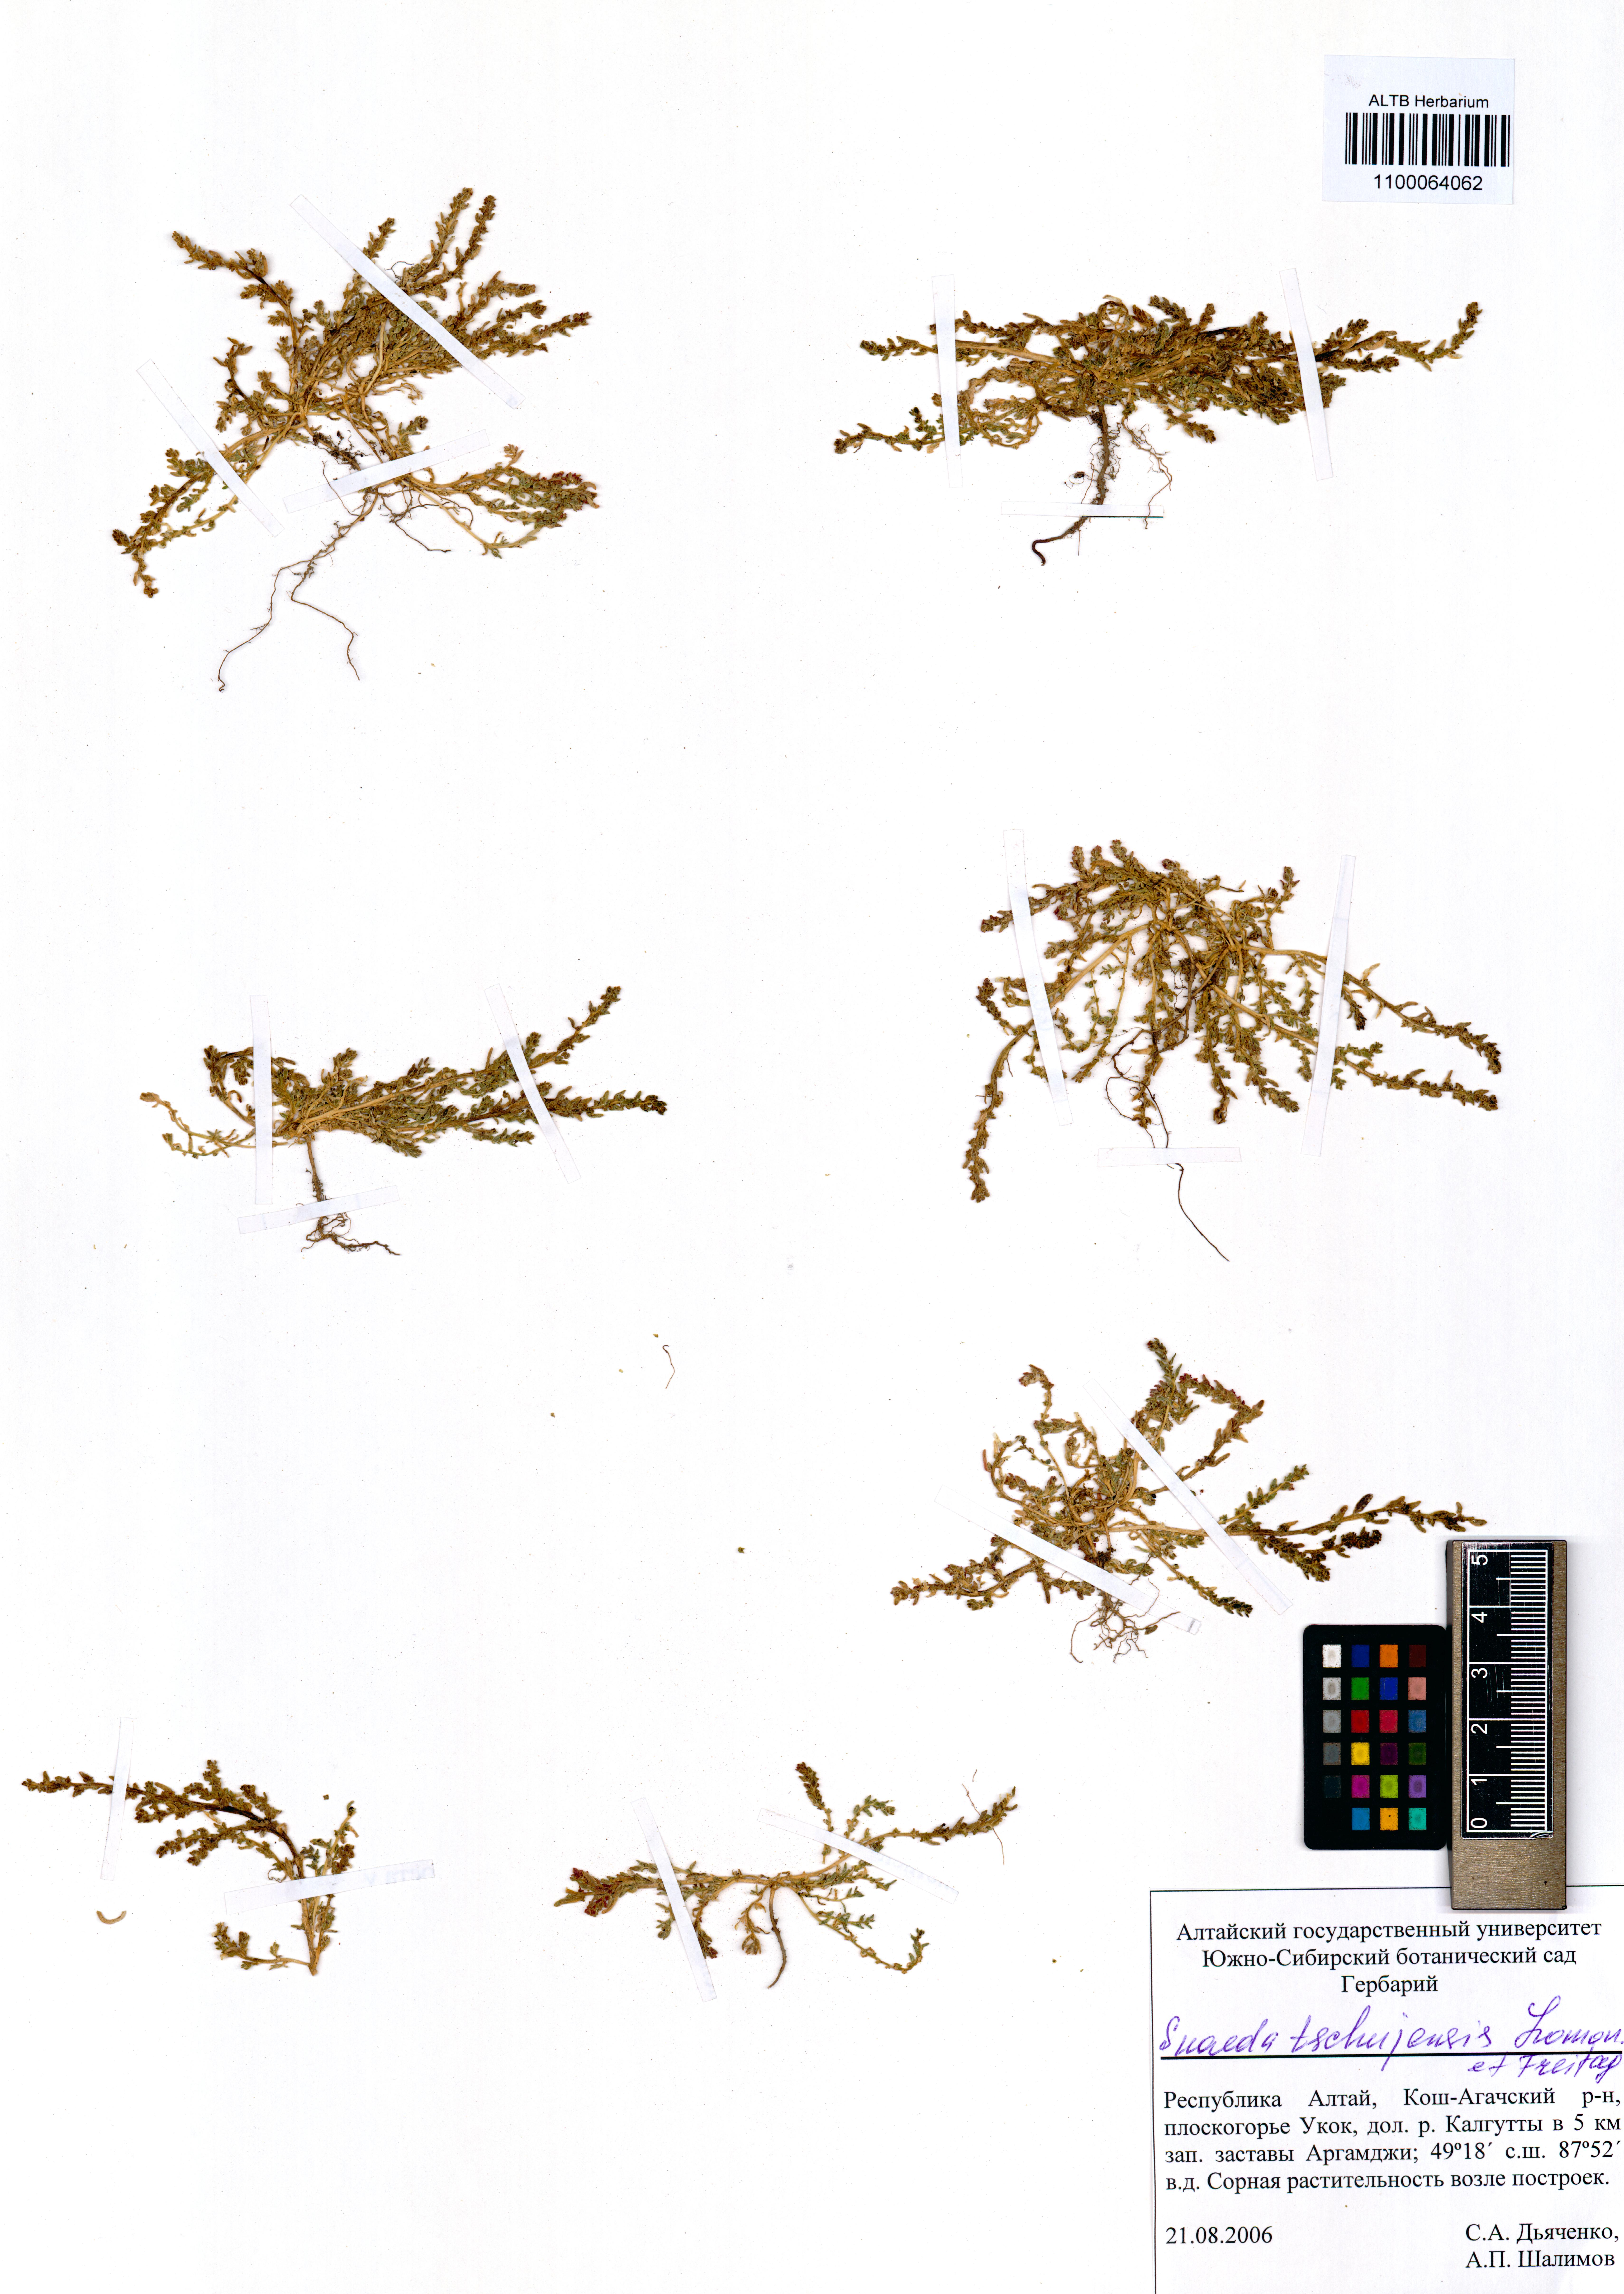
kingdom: Plantae
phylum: Tracheophyta
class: Magnoliopsida
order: Caryophyllales
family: Amaranthaceae
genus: Suaeda
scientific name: Suaeda tschujensis
